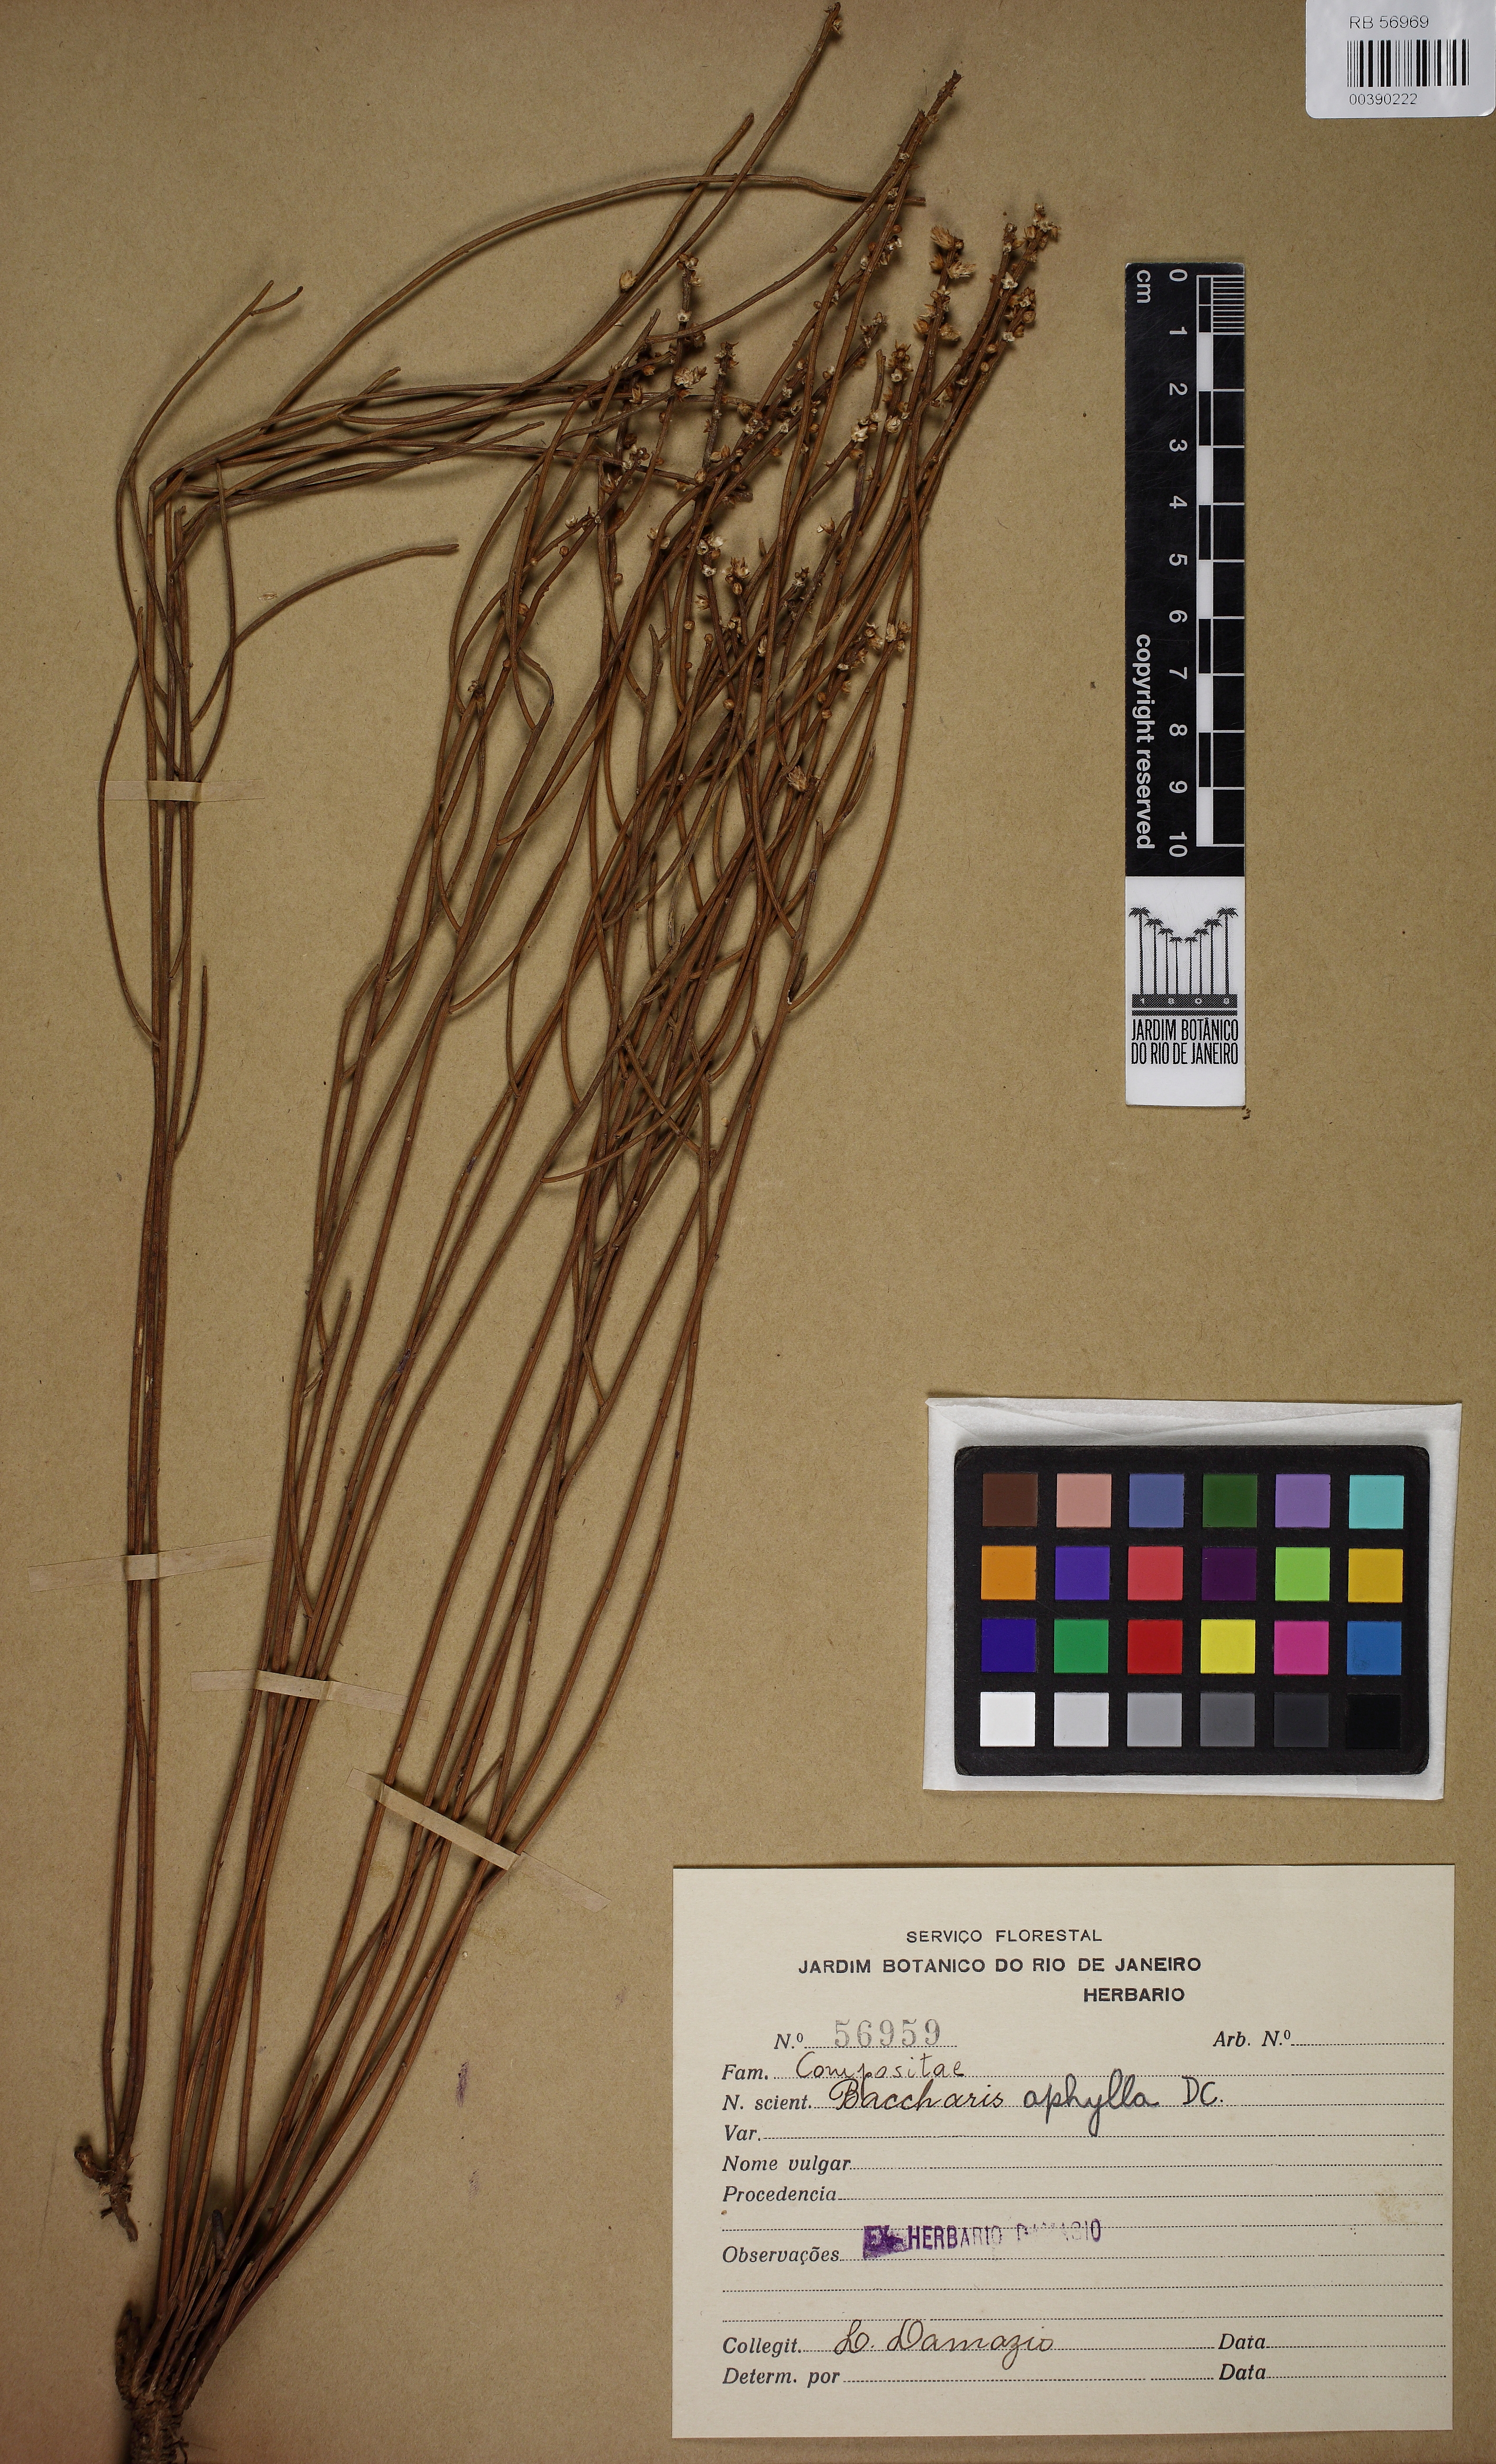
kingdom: Plantae
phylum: Tracheophyta
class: Magnoliopsida
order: Asterales
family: Asteraceae
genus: Baccharis
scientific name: Baccharis aphylla
